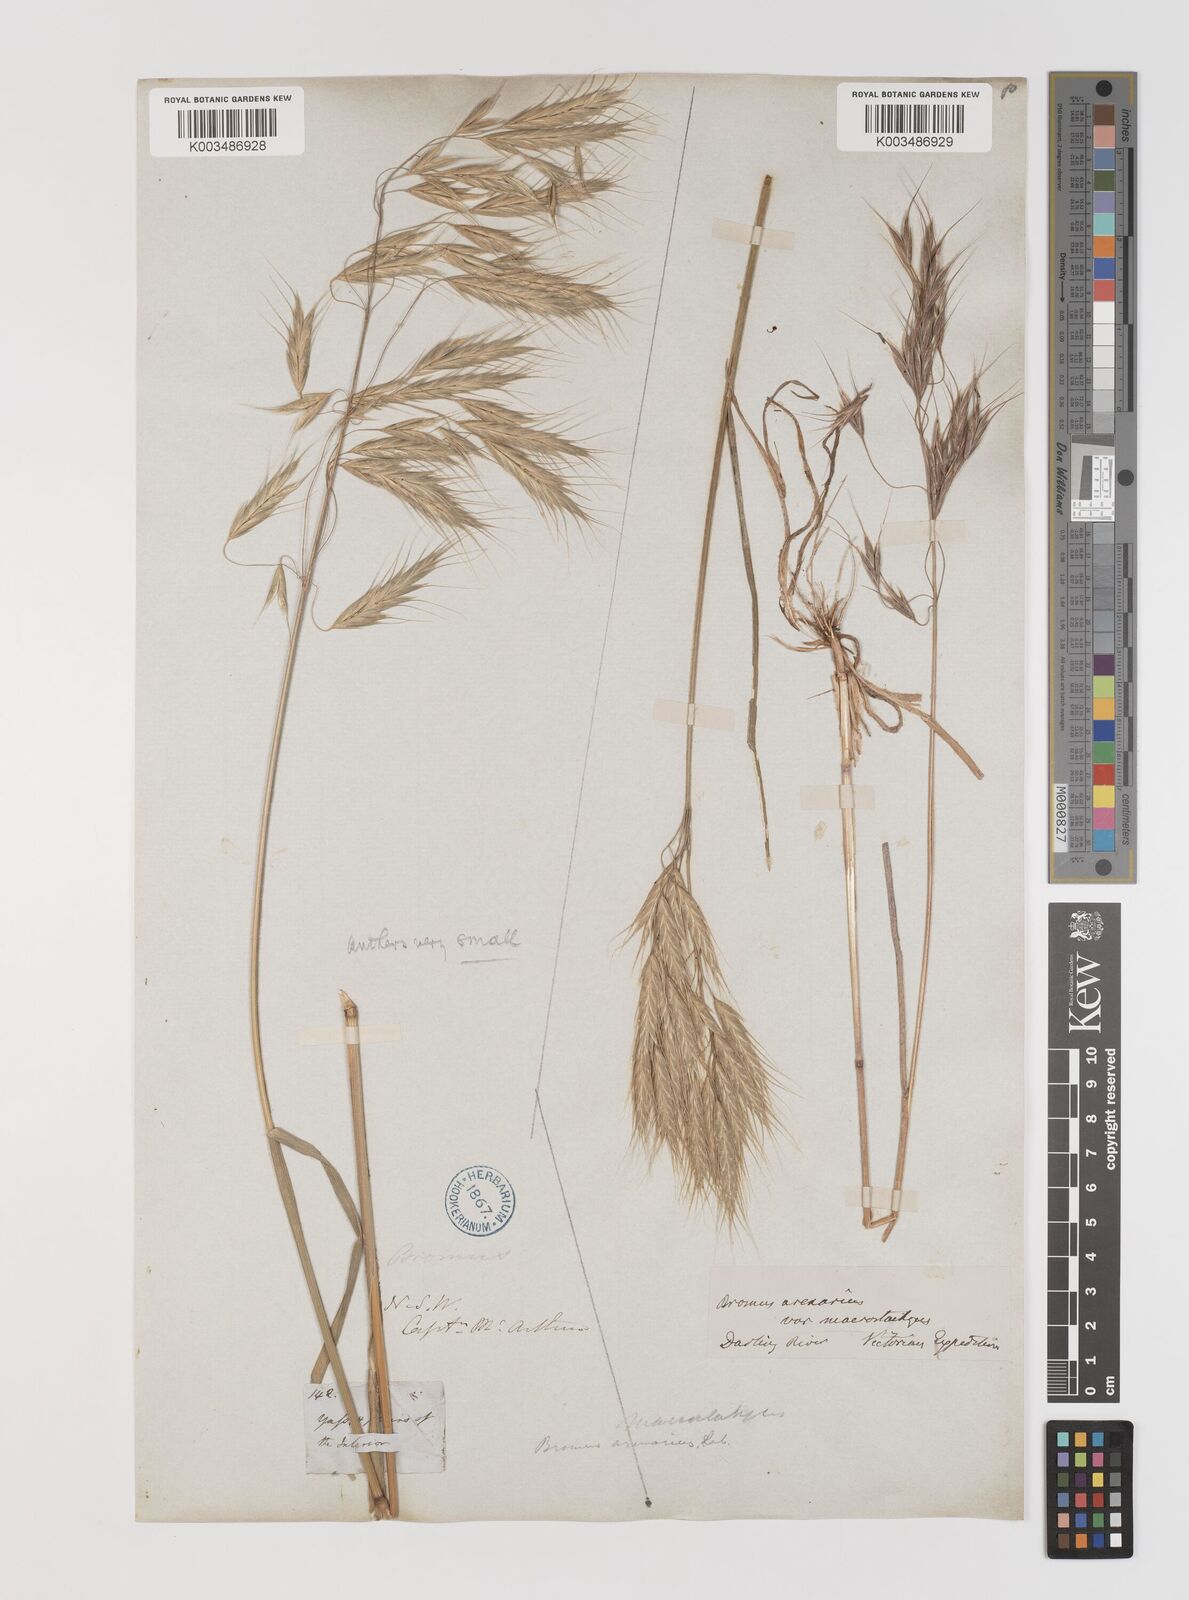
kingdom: Plantae
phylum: Tracheophyta
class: Liliopsida
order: Poales
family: Poaceae
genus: Bromus
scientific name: Bromus arenarius
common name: Australian brome
